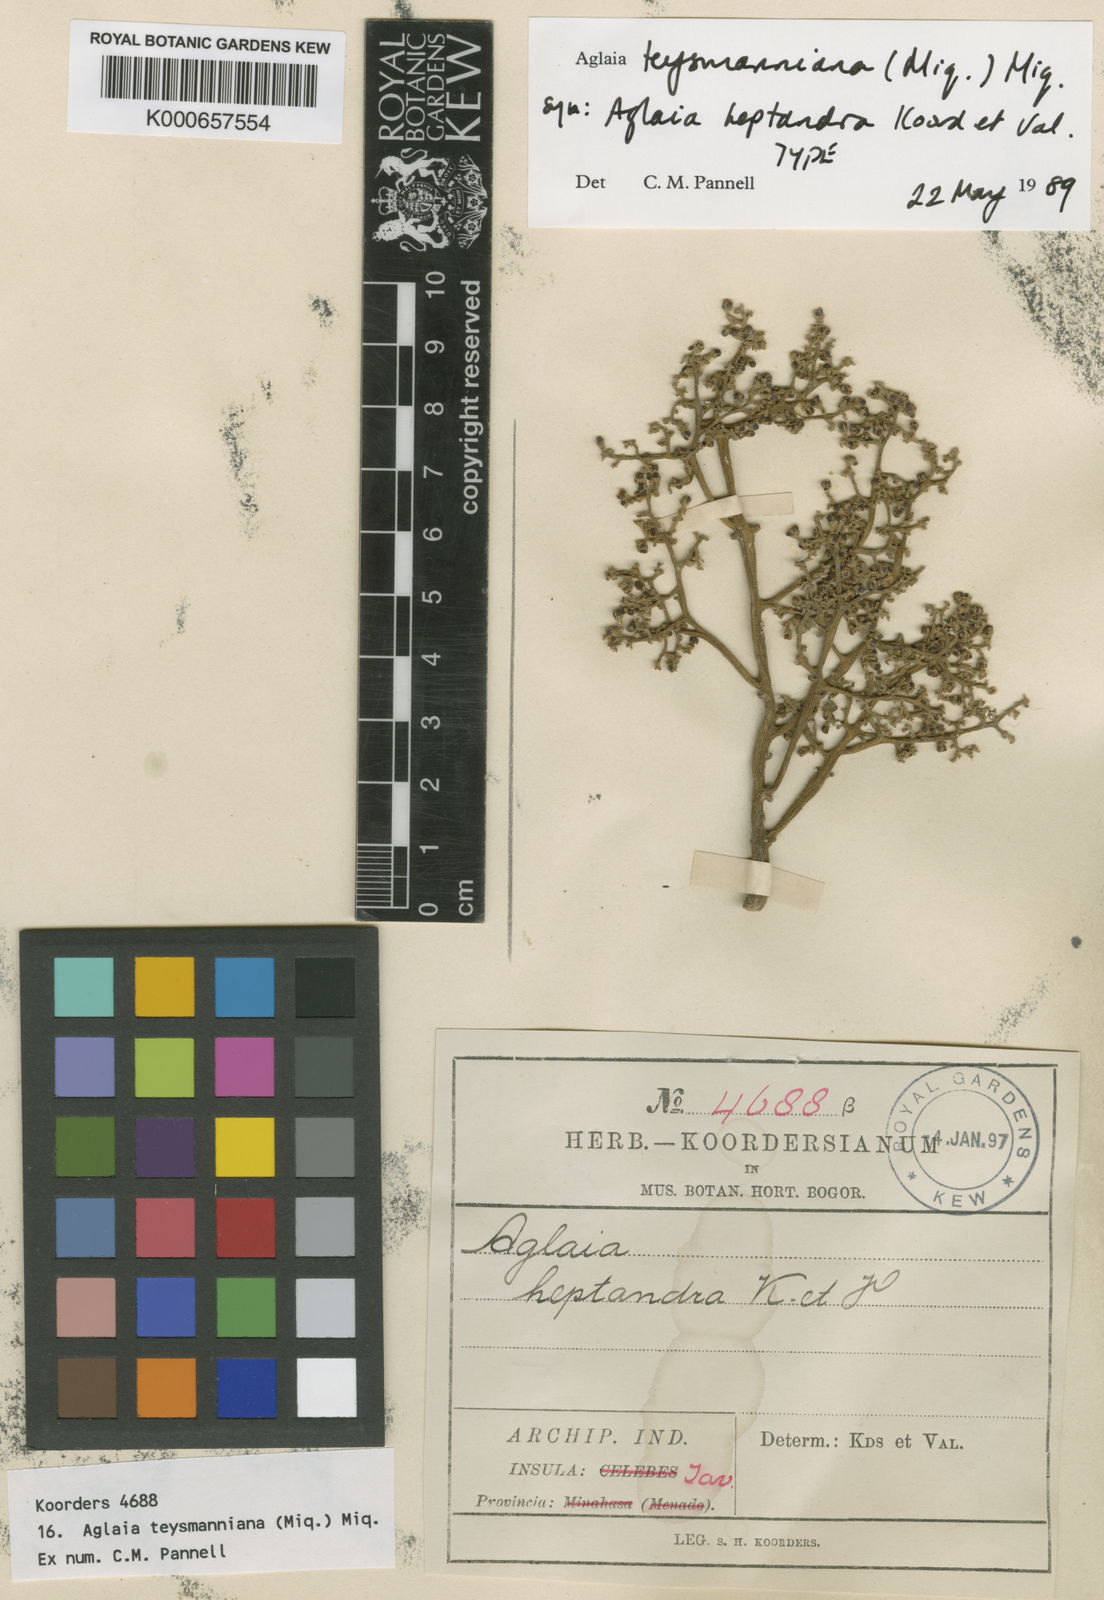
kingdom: Plantae
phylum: Tracheophyta
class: Magnoliopsida
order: Sapindales
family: Meliaceae
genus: Aglaia
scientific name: Aglaia teysmanniana
